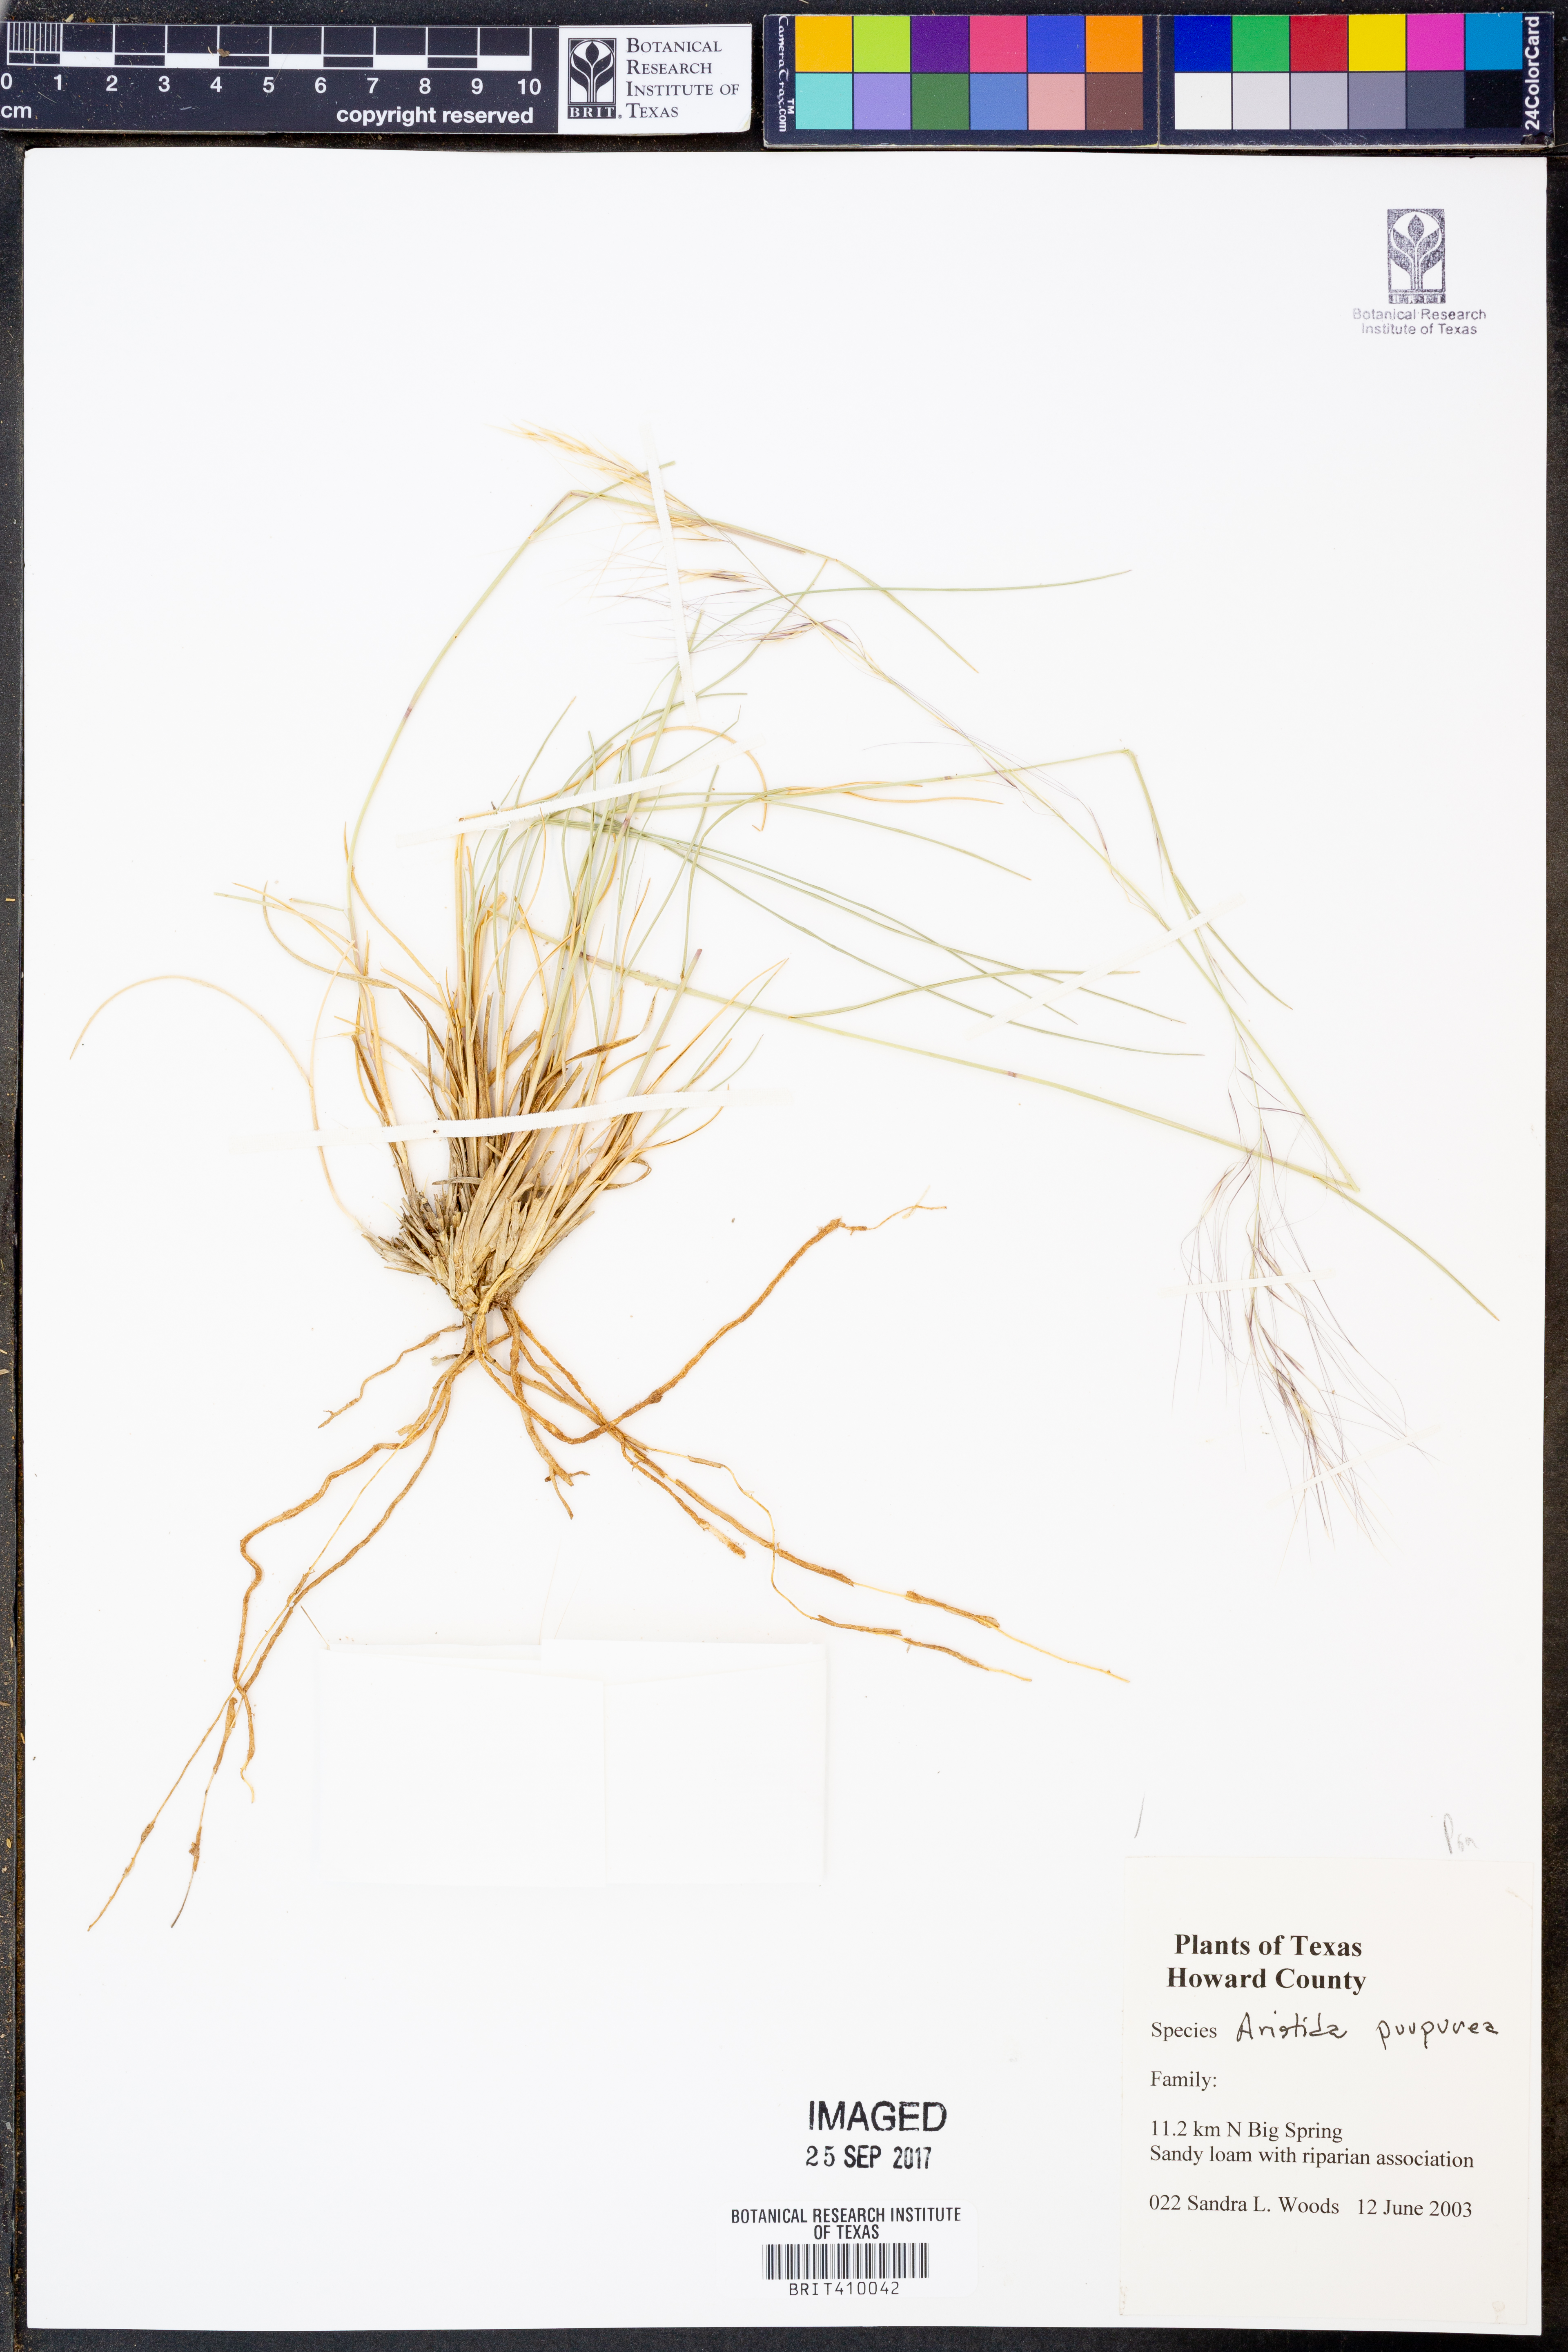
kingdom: Plantae
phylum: Tracheophyta
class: Liliopsida
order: Poales
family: Poaceae
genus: Aristida
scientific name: Aristida purpurea
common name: Purple threeawn
